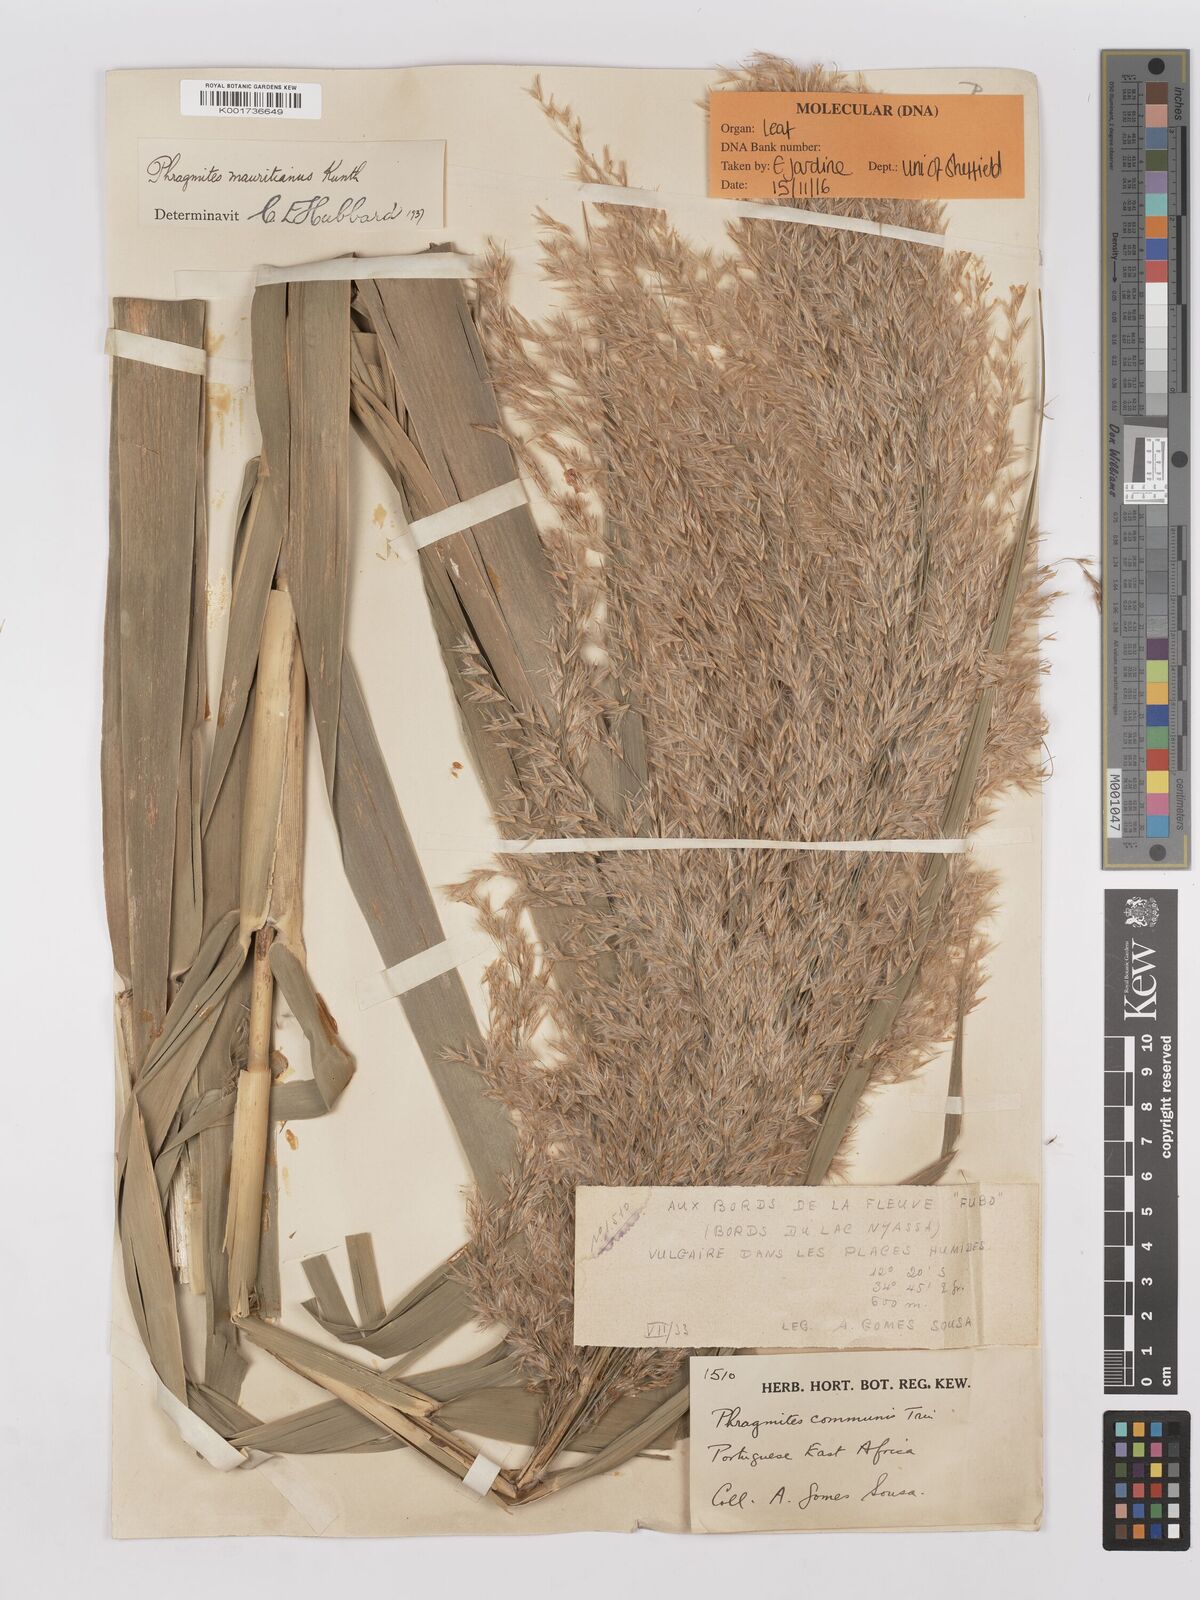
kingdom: Plantae
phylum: Tracheophyta
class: Liliopsida
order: Poales
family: Poaceae
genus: Phragmites
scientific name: Phragmites mauritianus
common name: Reed grass
